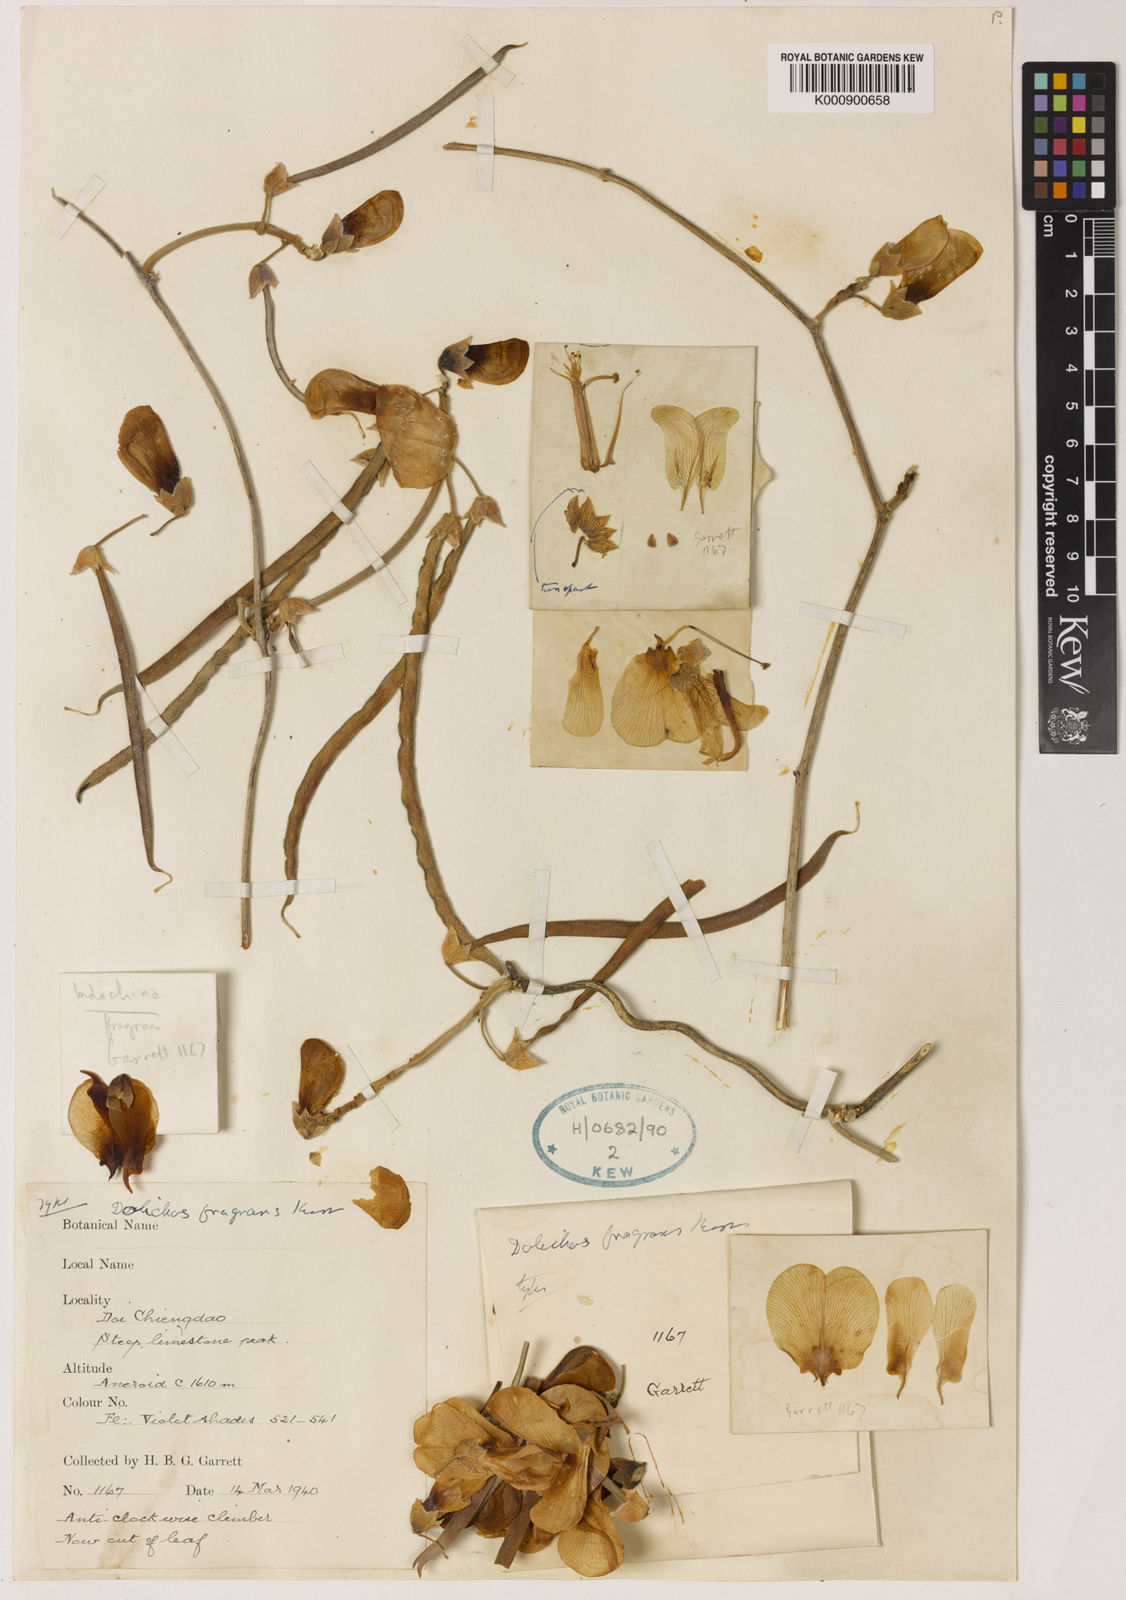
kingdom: Plantae
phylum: Tracheophyta
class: Magnoliopsida
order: Fabales
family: Fabaceae
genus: Dolichos
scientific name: Dolichos fragrans
